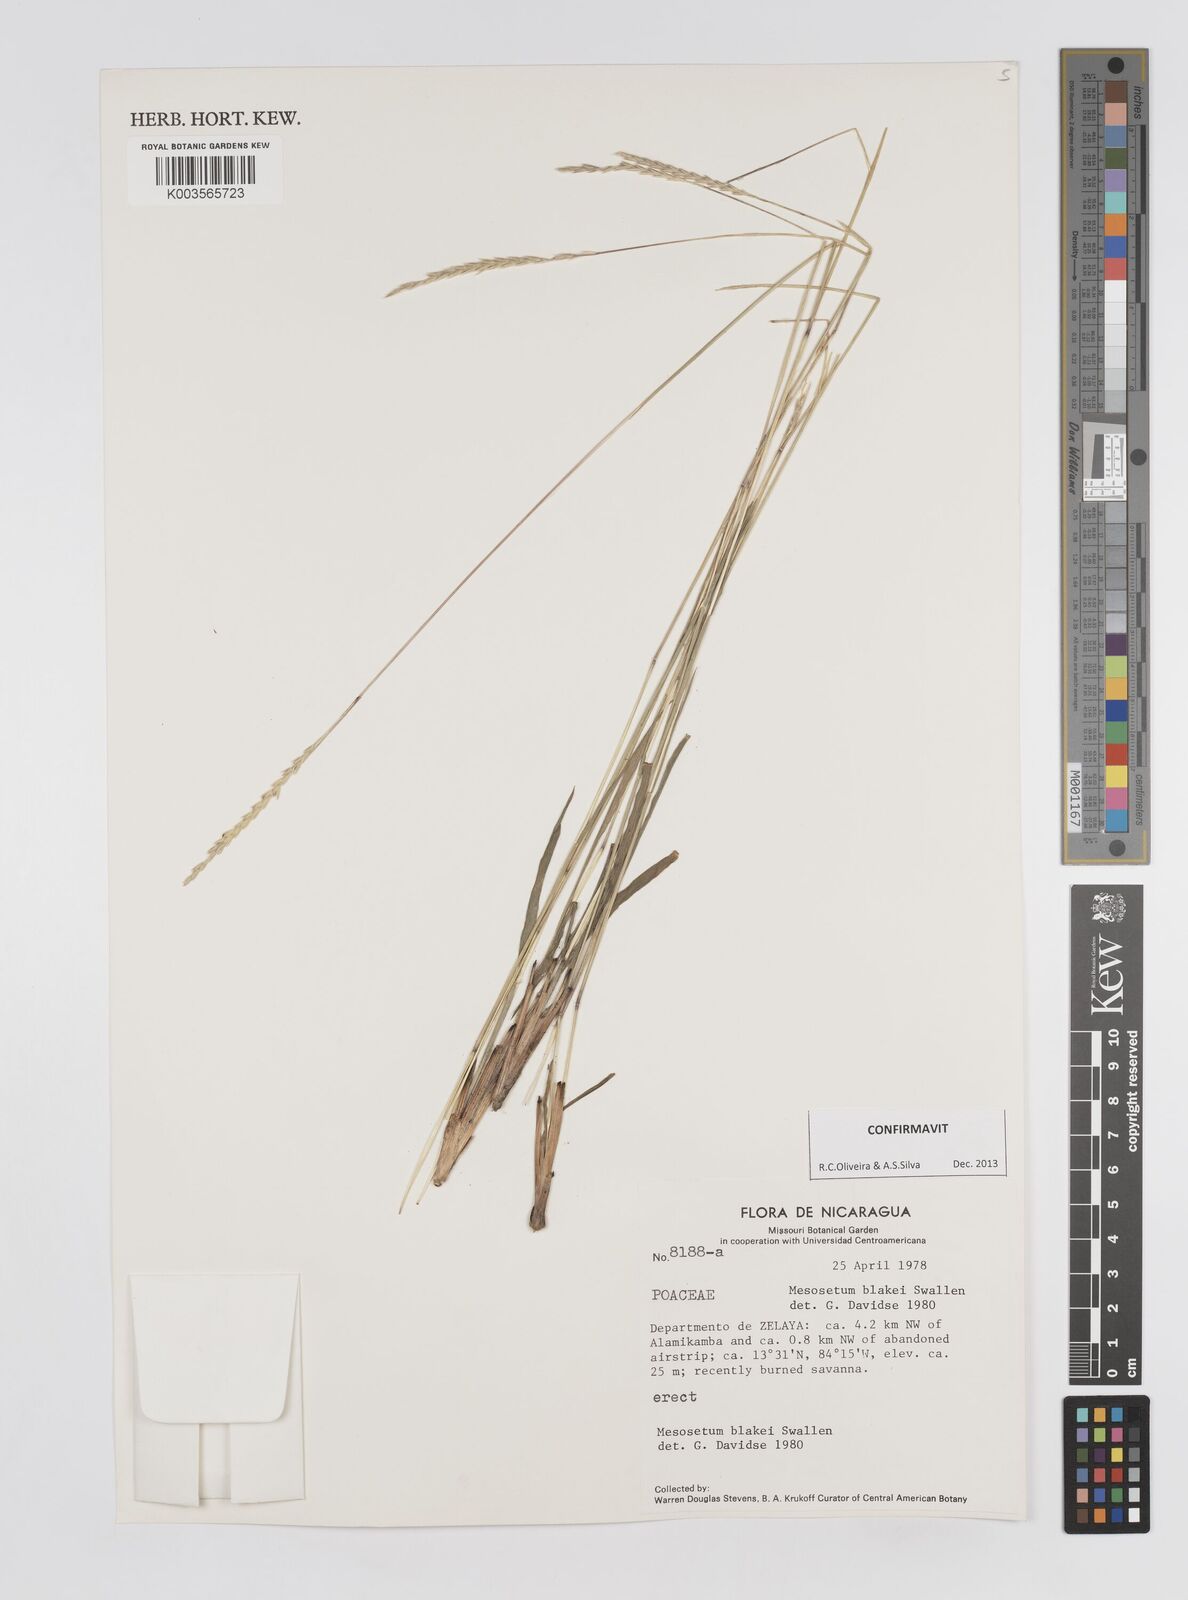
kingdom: Plantae
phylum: Tracheophyta
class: Liliopsida
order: Poales
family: Poaceae
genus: Mesosetum
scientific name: Mesosetum blakei
